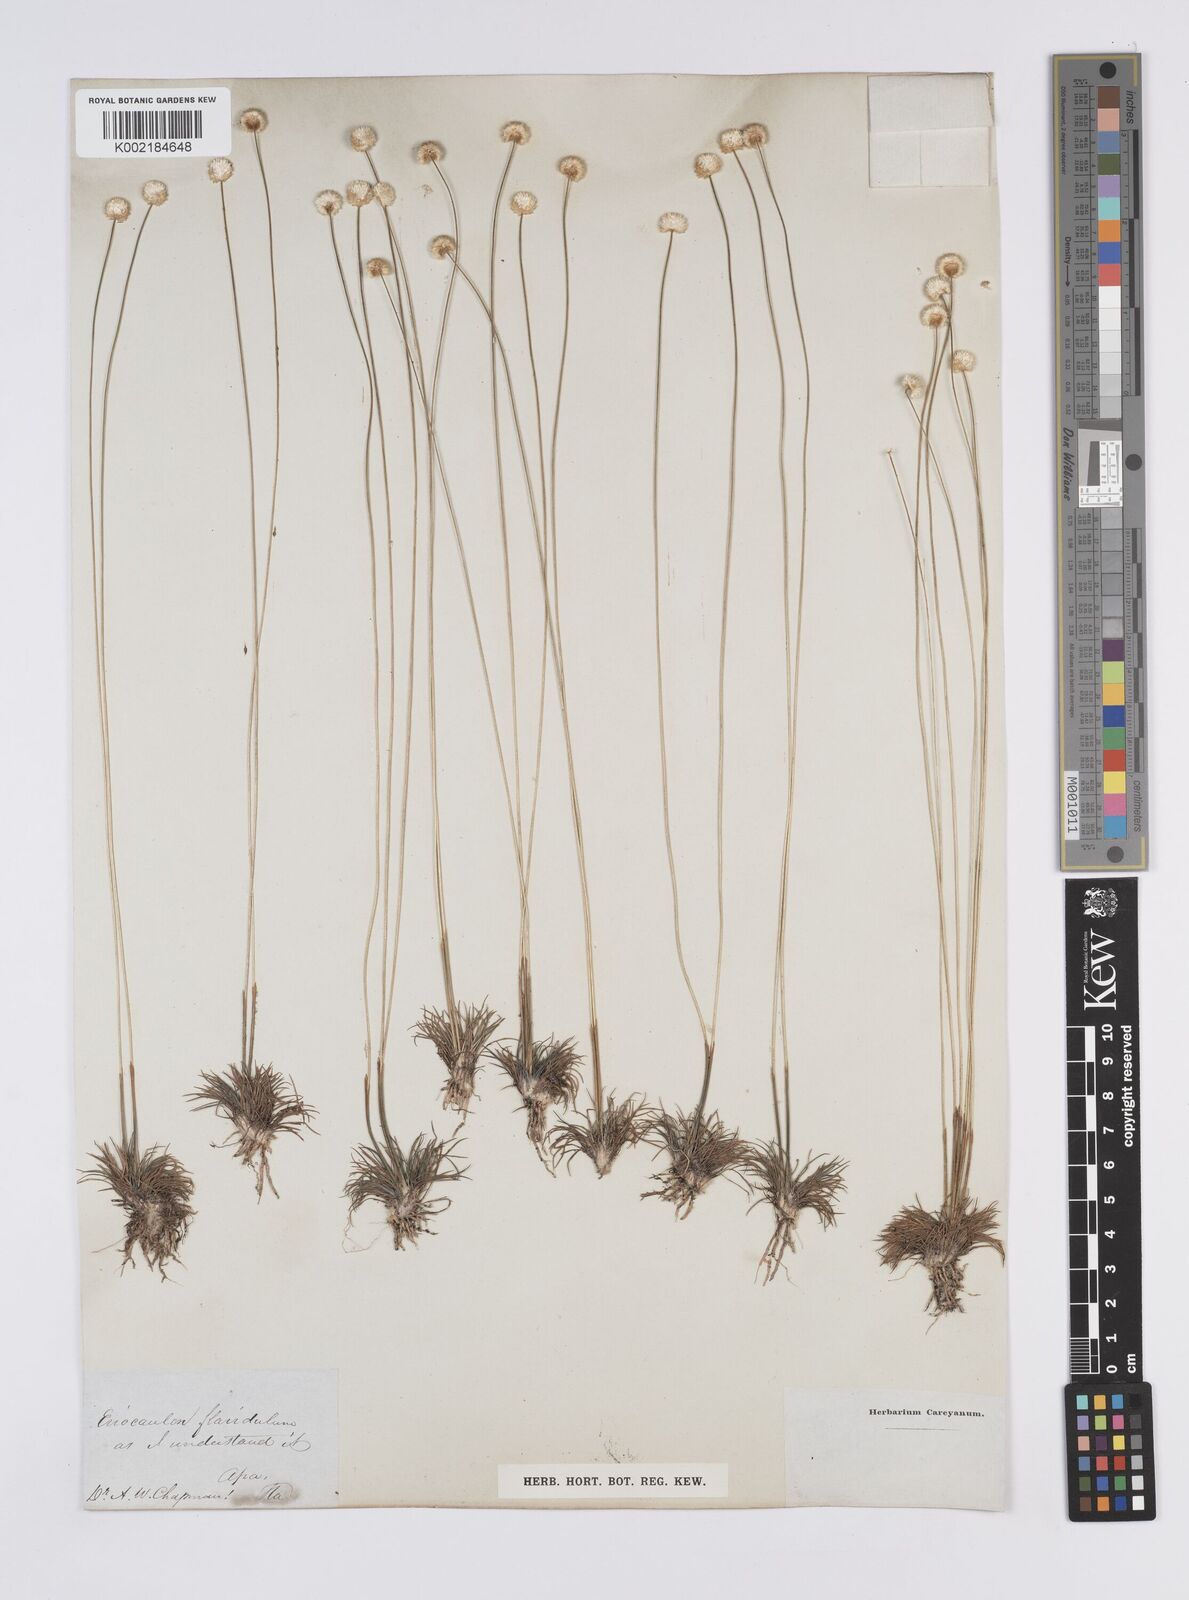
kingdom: Plantae
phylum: Tracheophyta
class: Liliopsida
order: Poales
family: Eriocaulaceae
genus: Syngonanthus
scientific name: Syngonanthus flavidulus
